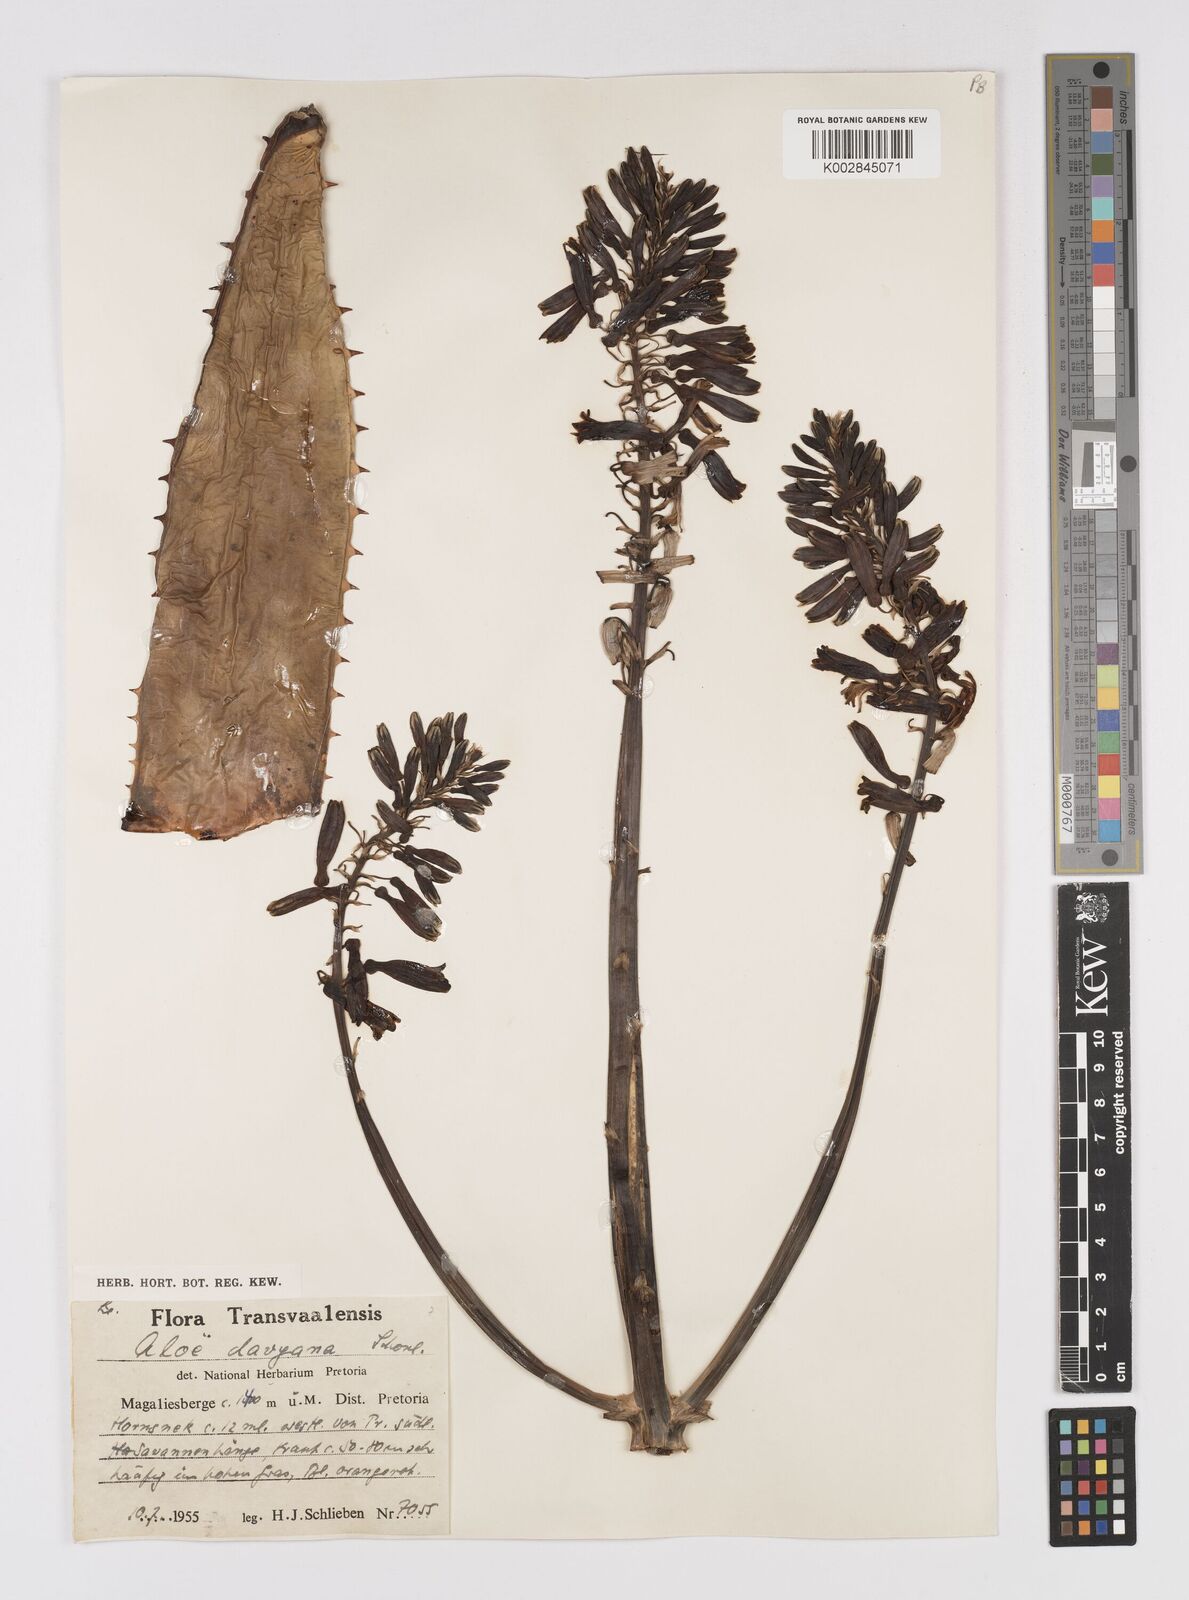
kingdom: Plantae
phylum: Tracheophyta
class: Liliopsida
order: Asparagales
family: Asphodelaceae
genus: Aloe
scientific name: Aloe davyana
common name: Spotted aloe
